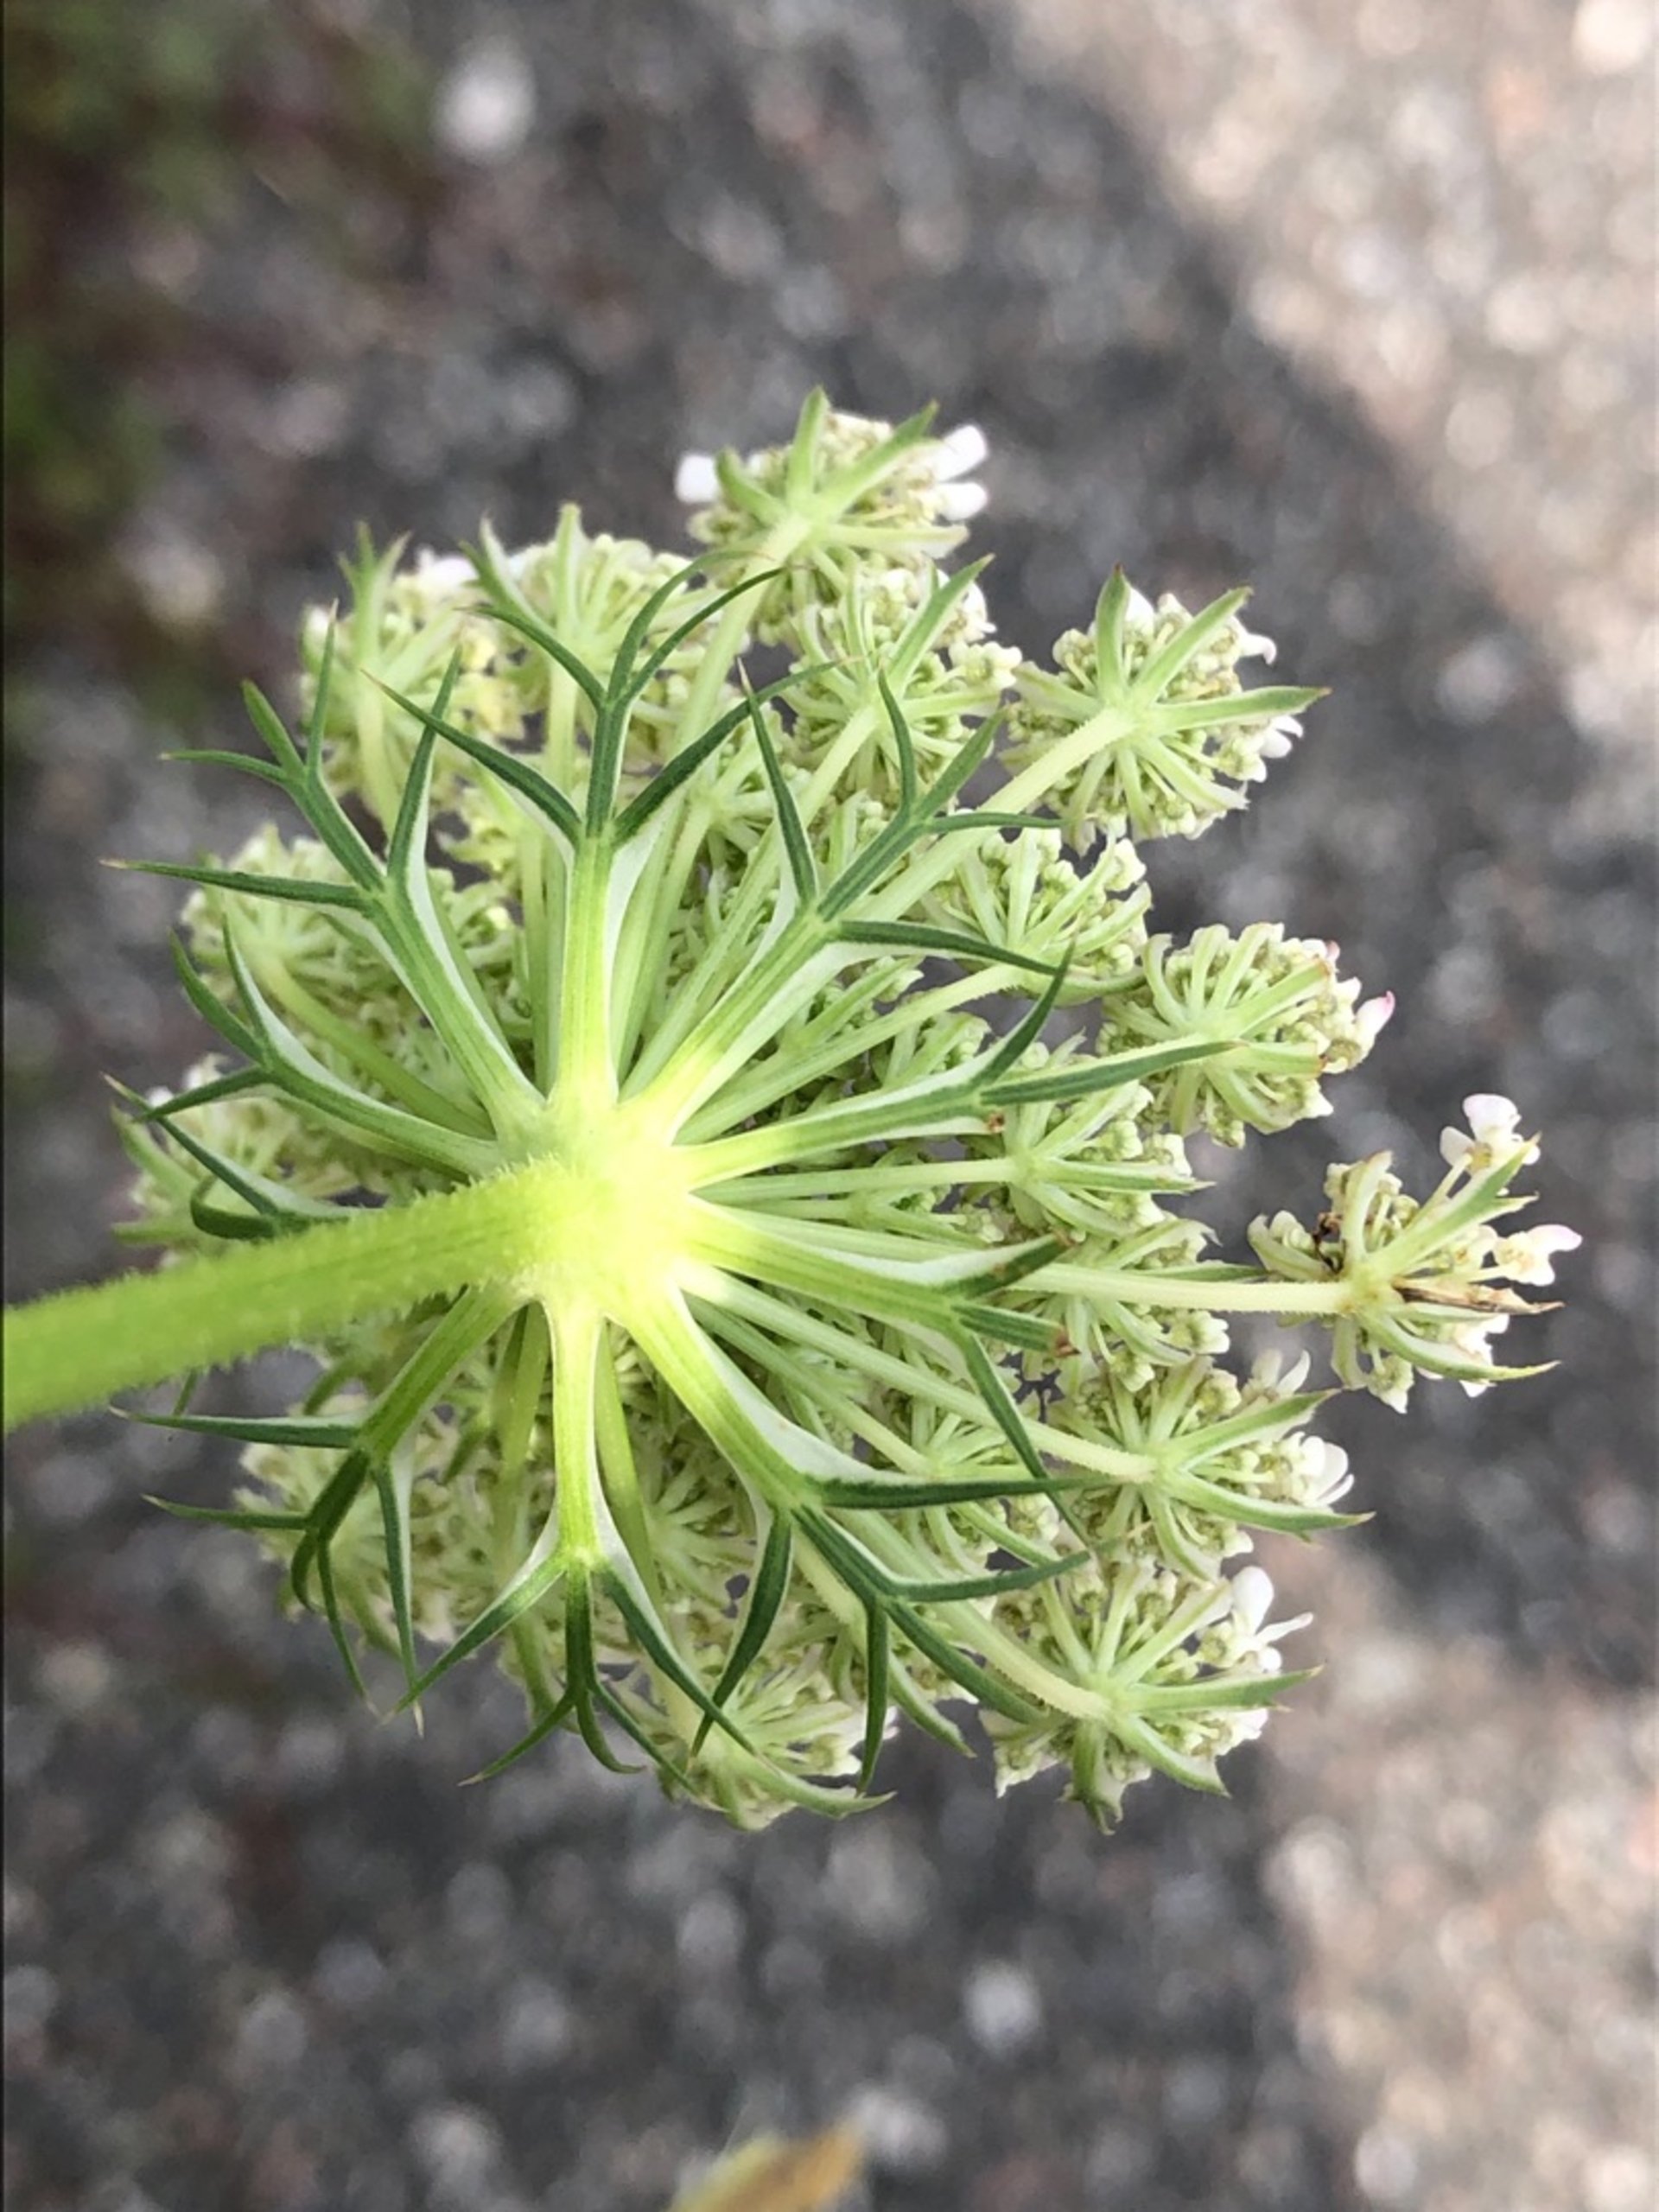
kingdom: Plantae
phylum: Tracheophyta
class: Magnoliopsida
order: Apiales
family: Apiaceae
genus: Daucus
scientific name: Daucus carota
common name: Vild gulerod
